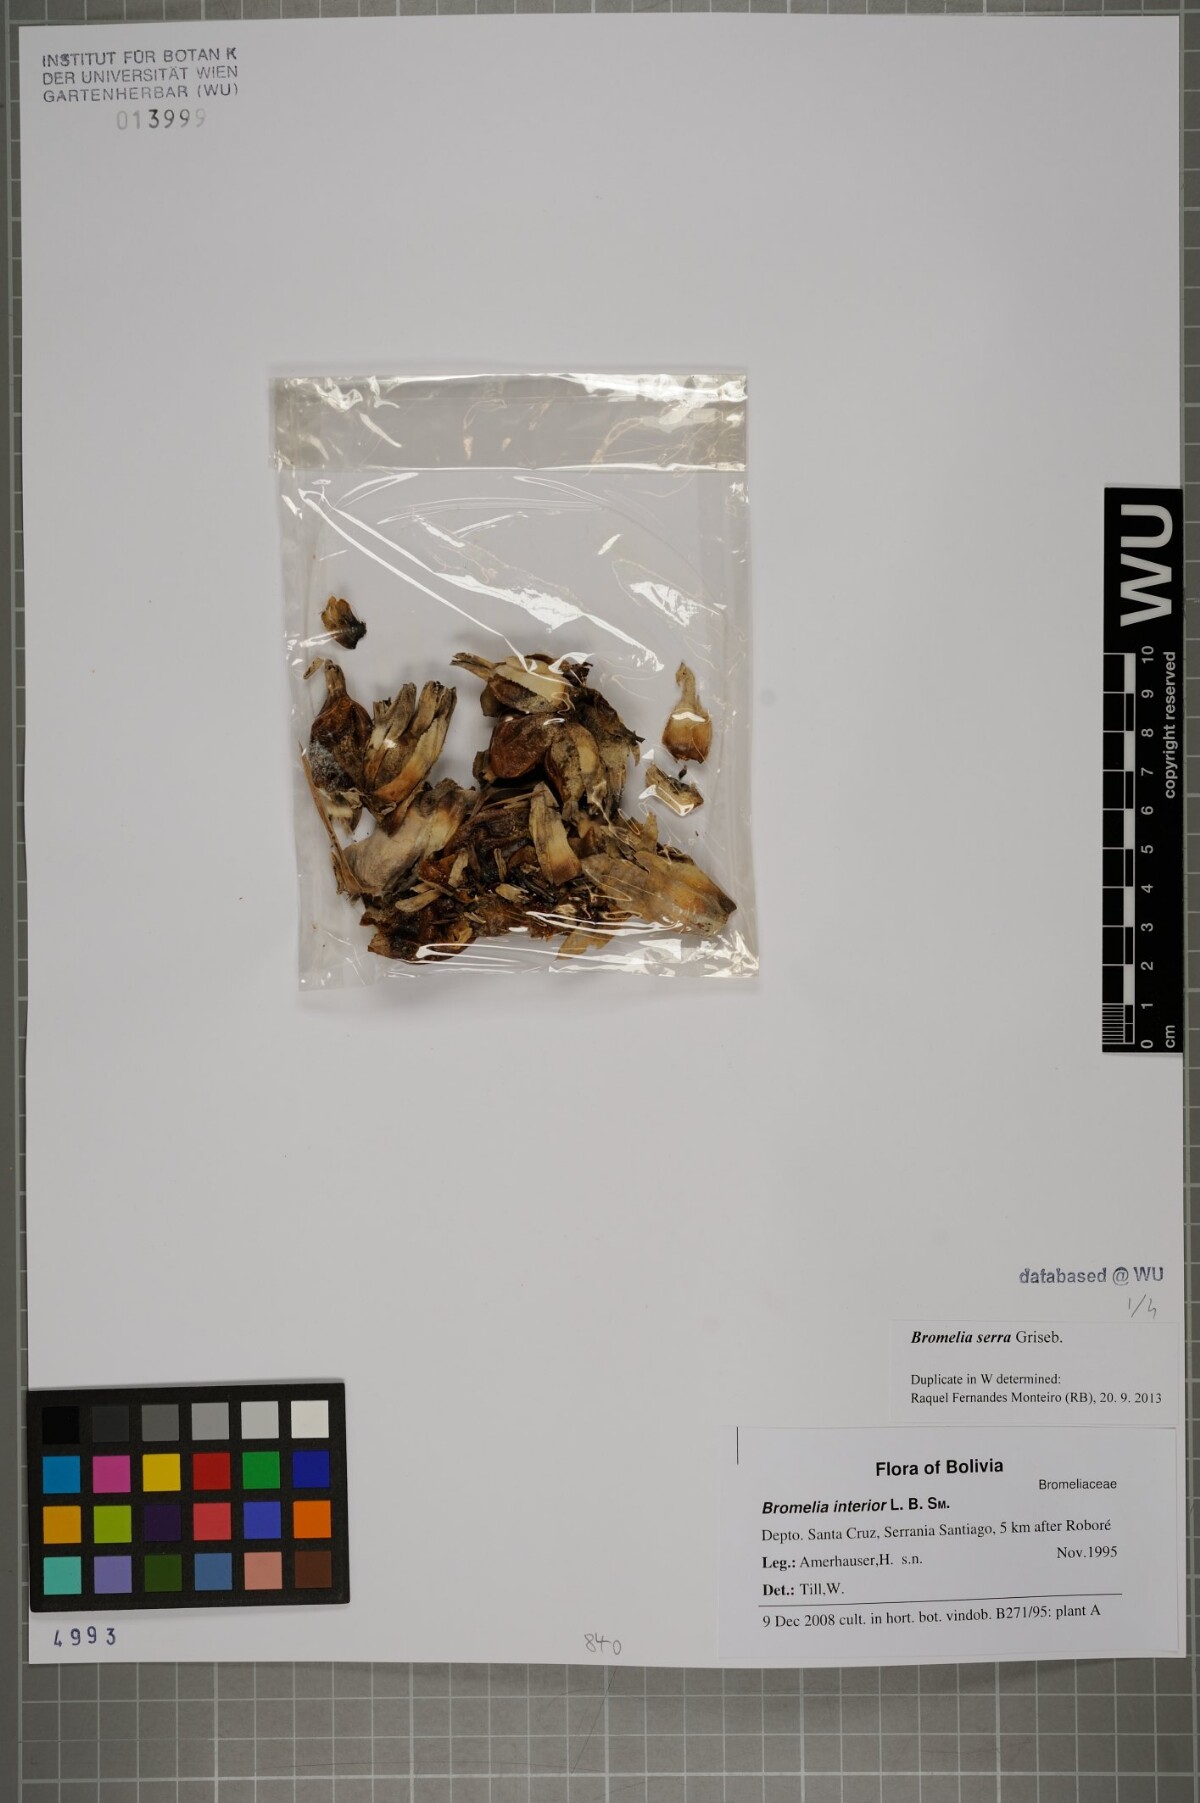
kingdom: Plantae
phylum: Tracheophyta
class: Liliopsida
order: Poales
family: Bromeliaceae
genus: Bromelia
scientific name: Bromelia serra
